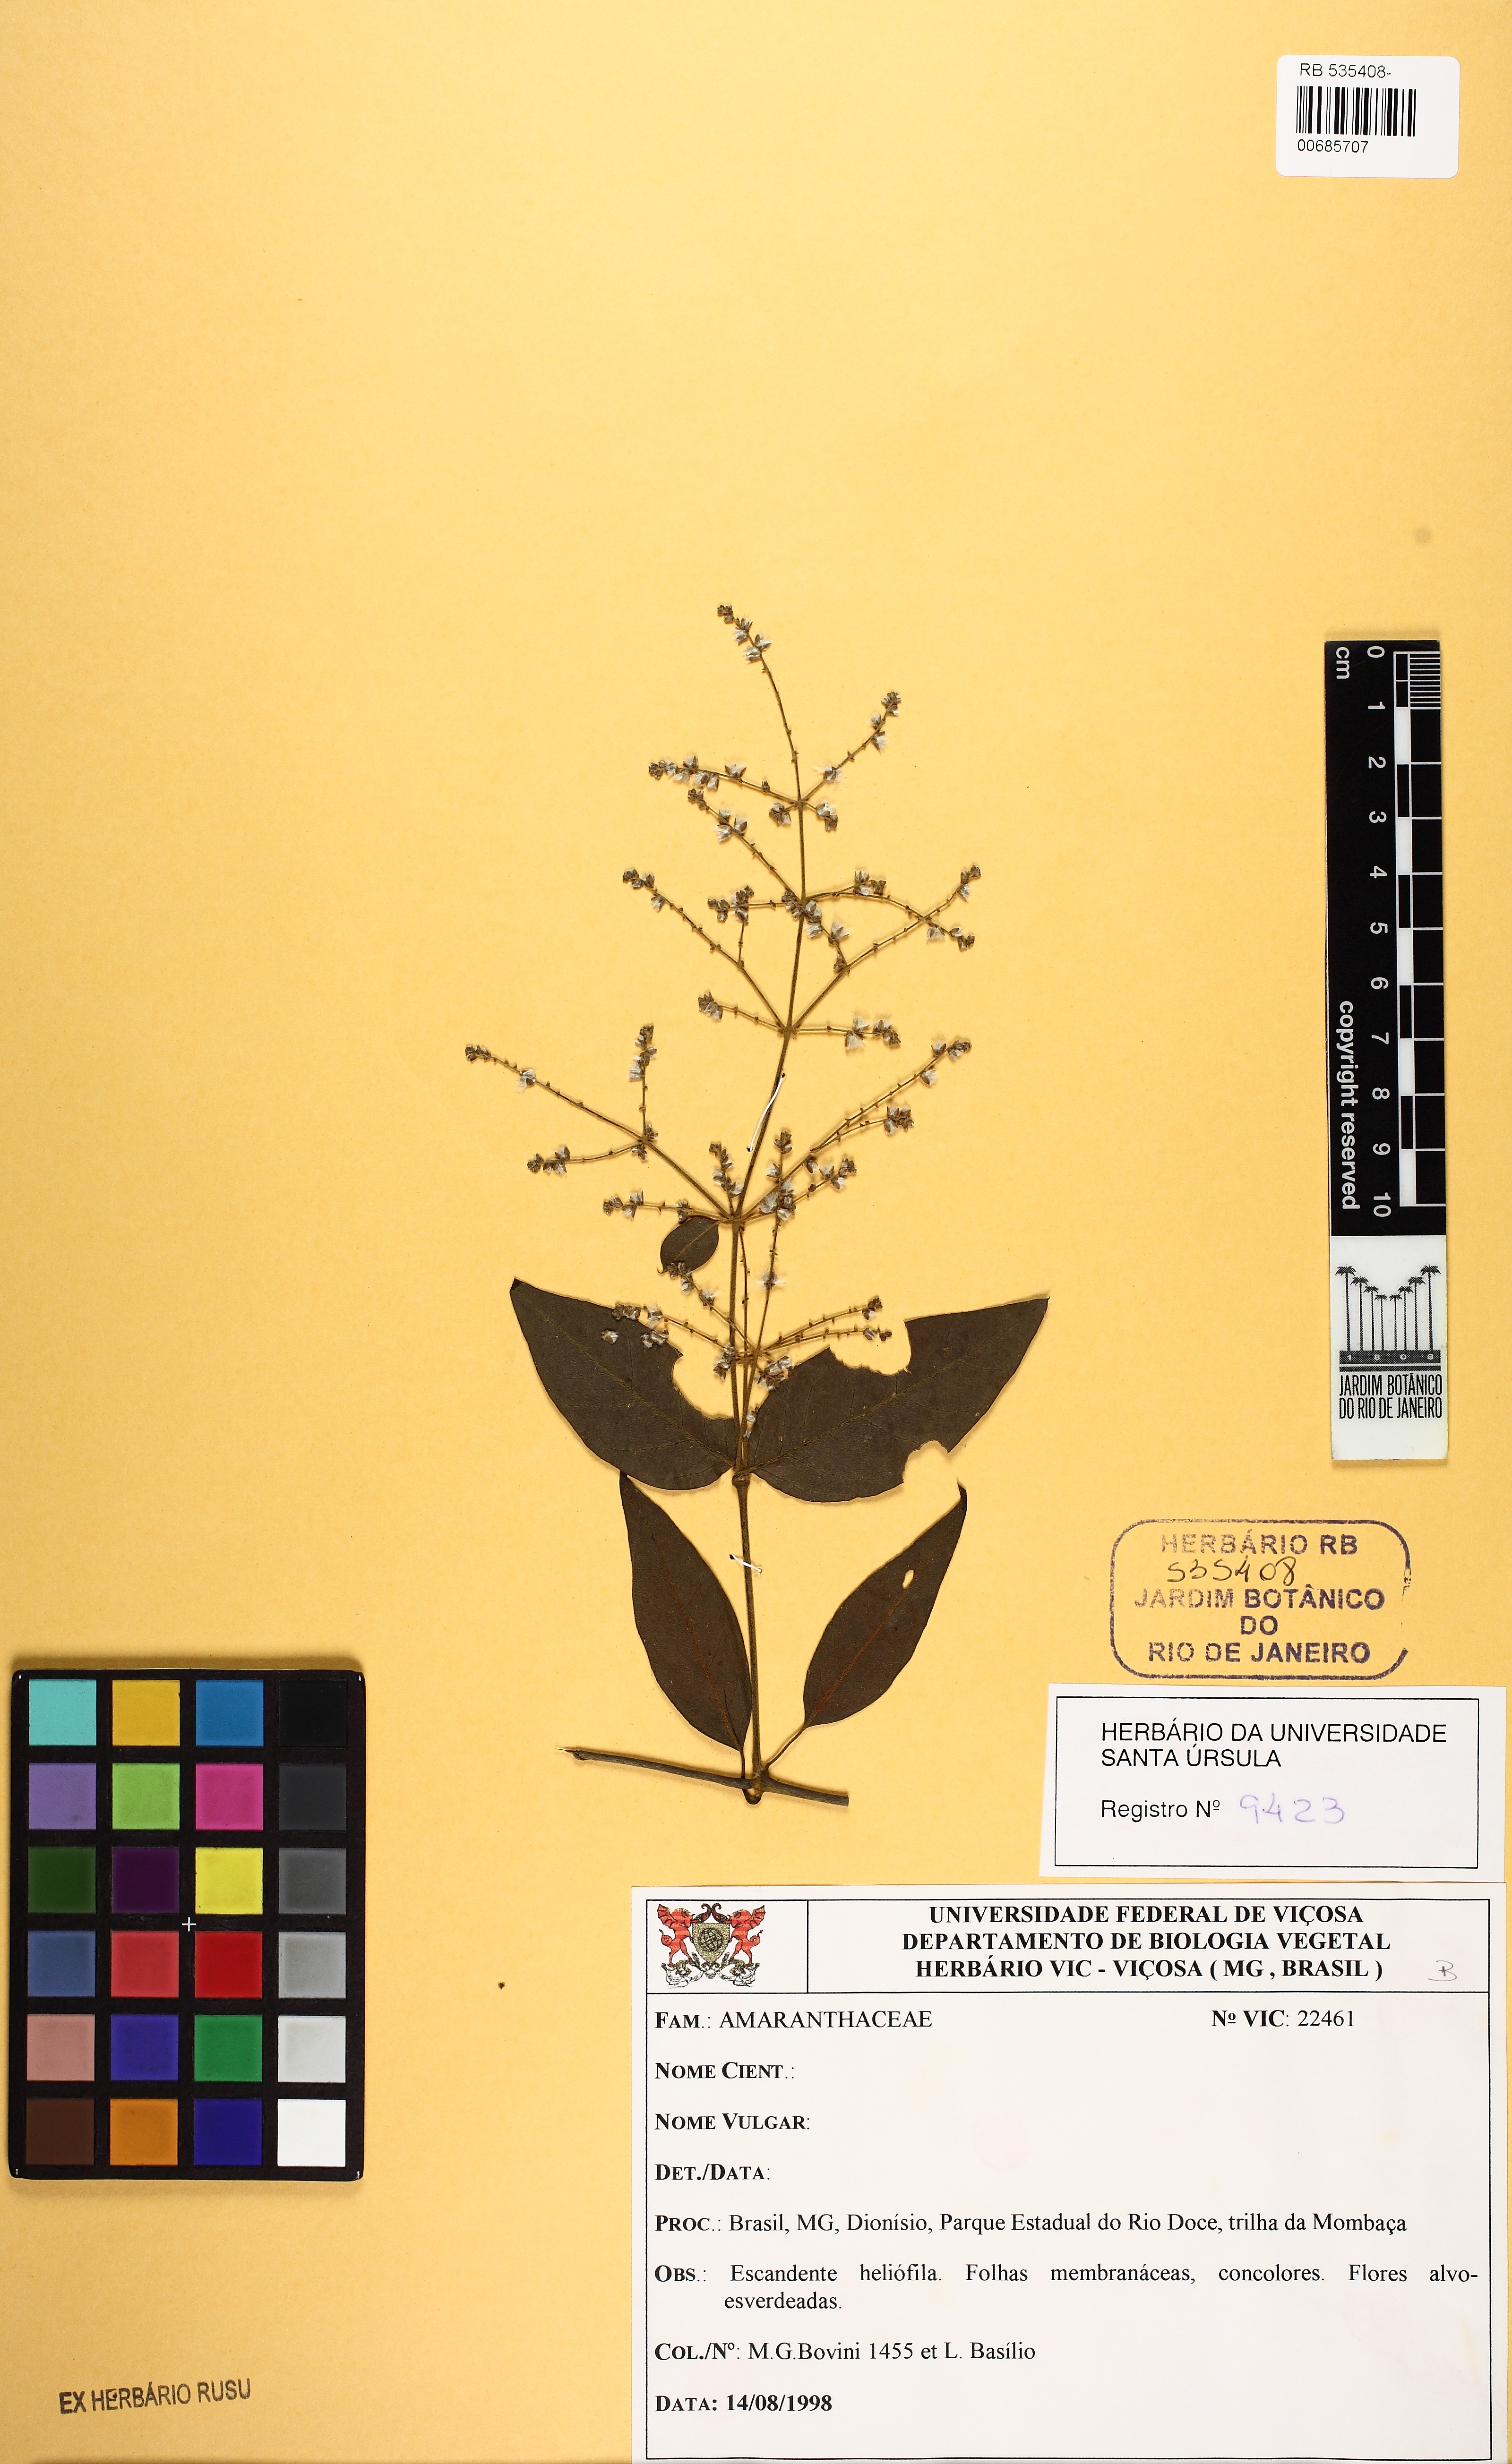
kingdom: Plantae
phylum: Tracheophyta
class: Magnoliopsida
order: Caryophyllales
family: Amaranthaceae
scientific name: Amaranthaceae
